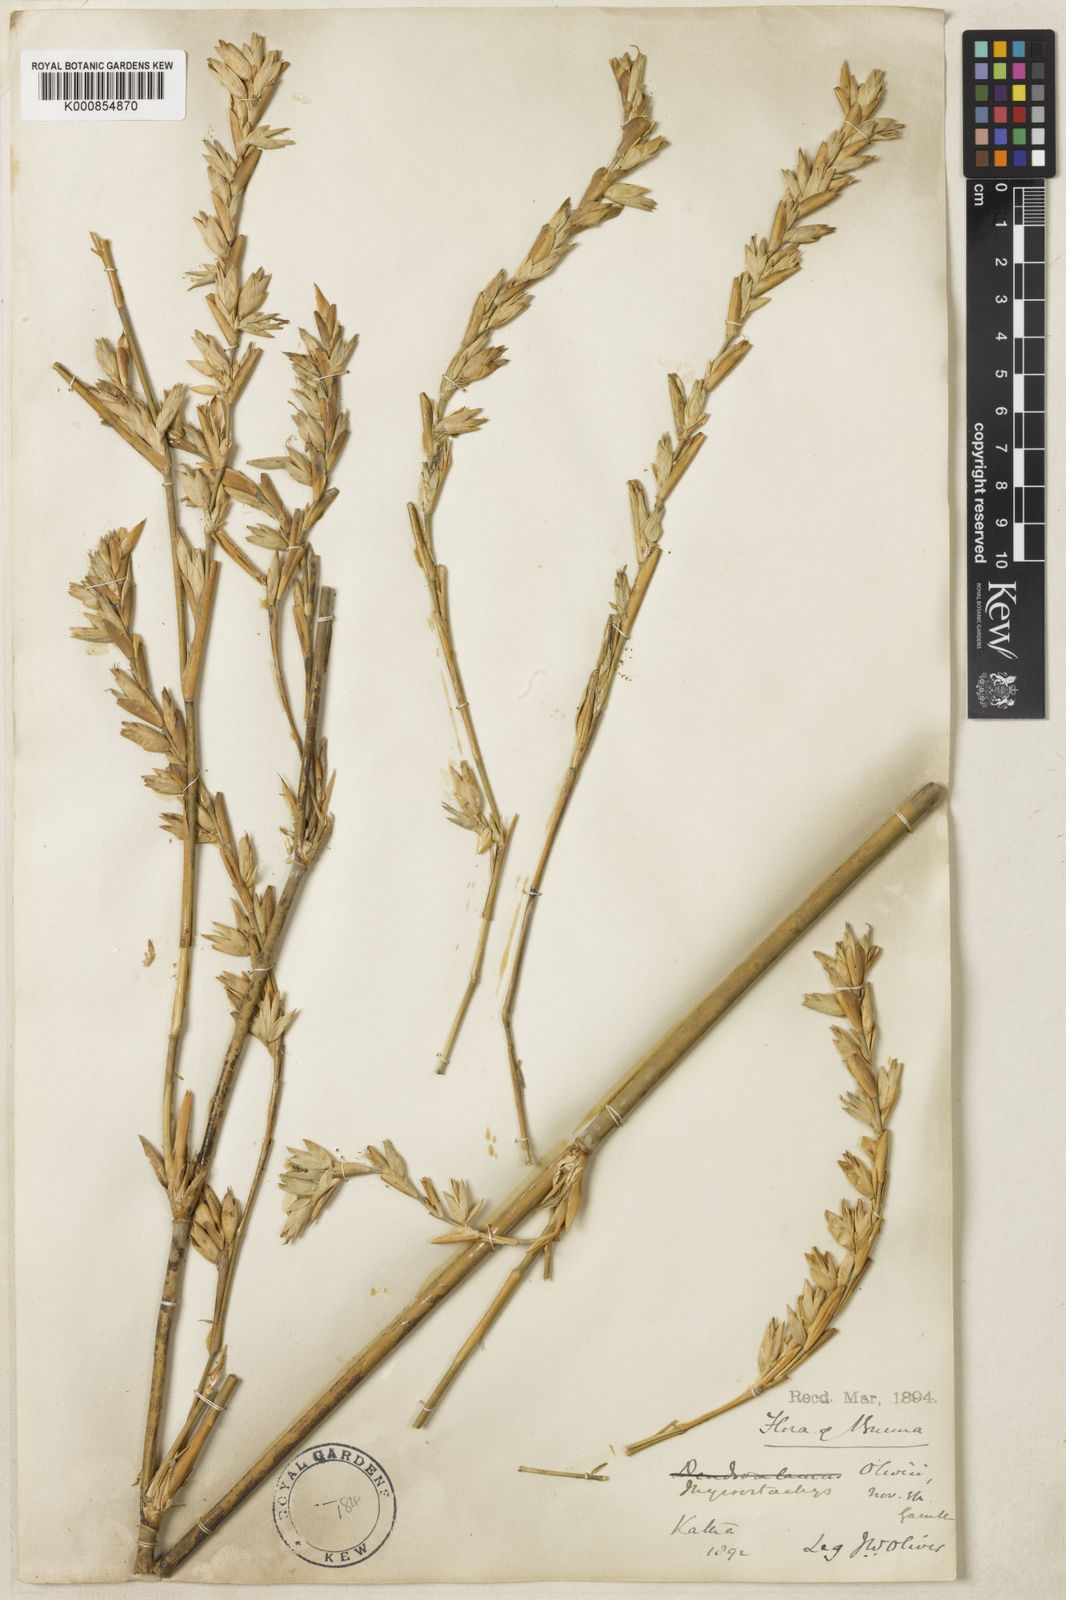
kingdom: Plantae
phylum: Tracheophyta
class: Liliopsida
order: Poales
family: Poaceae
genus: Thyrsostachys
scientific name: Thyrsostachys oliveri
